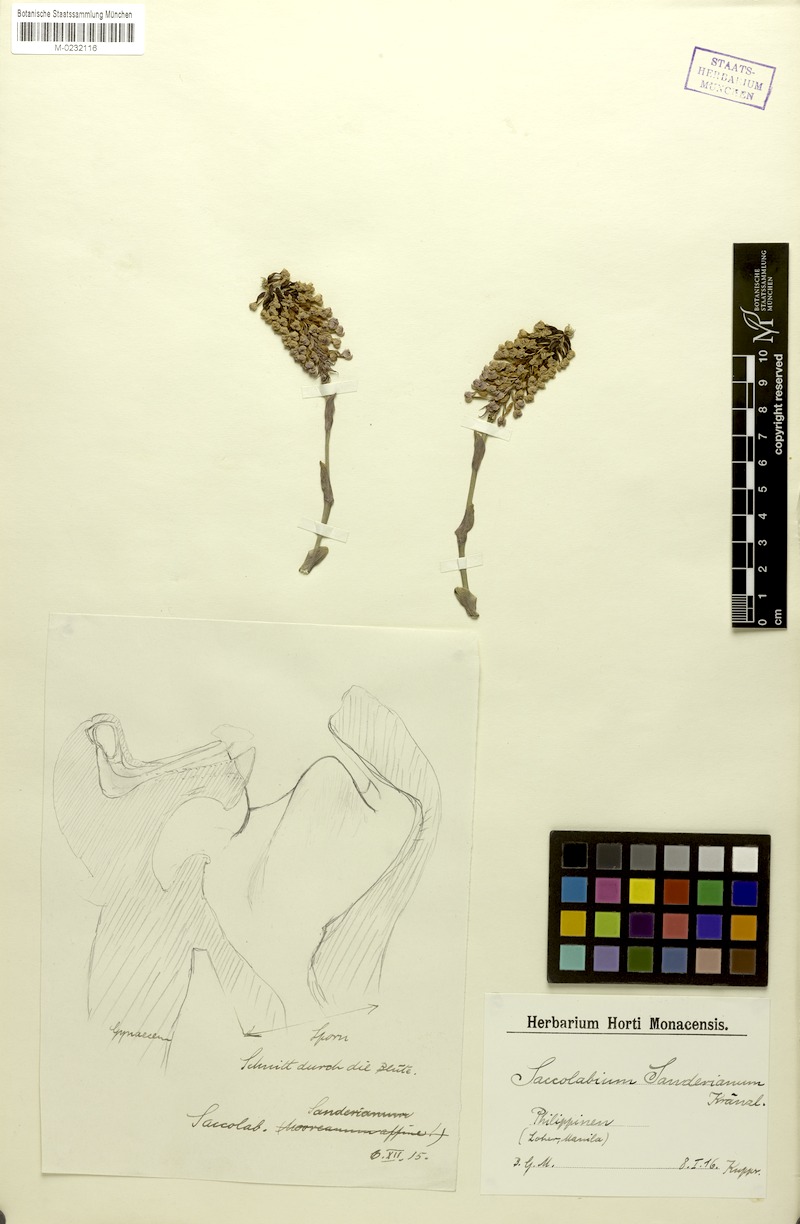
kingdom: Plantae
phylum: Tracheophyta
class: Liliopsida
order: Asparagales
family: Orchidaceae
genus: Robiquetia
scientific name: Robiquetia ascendens
